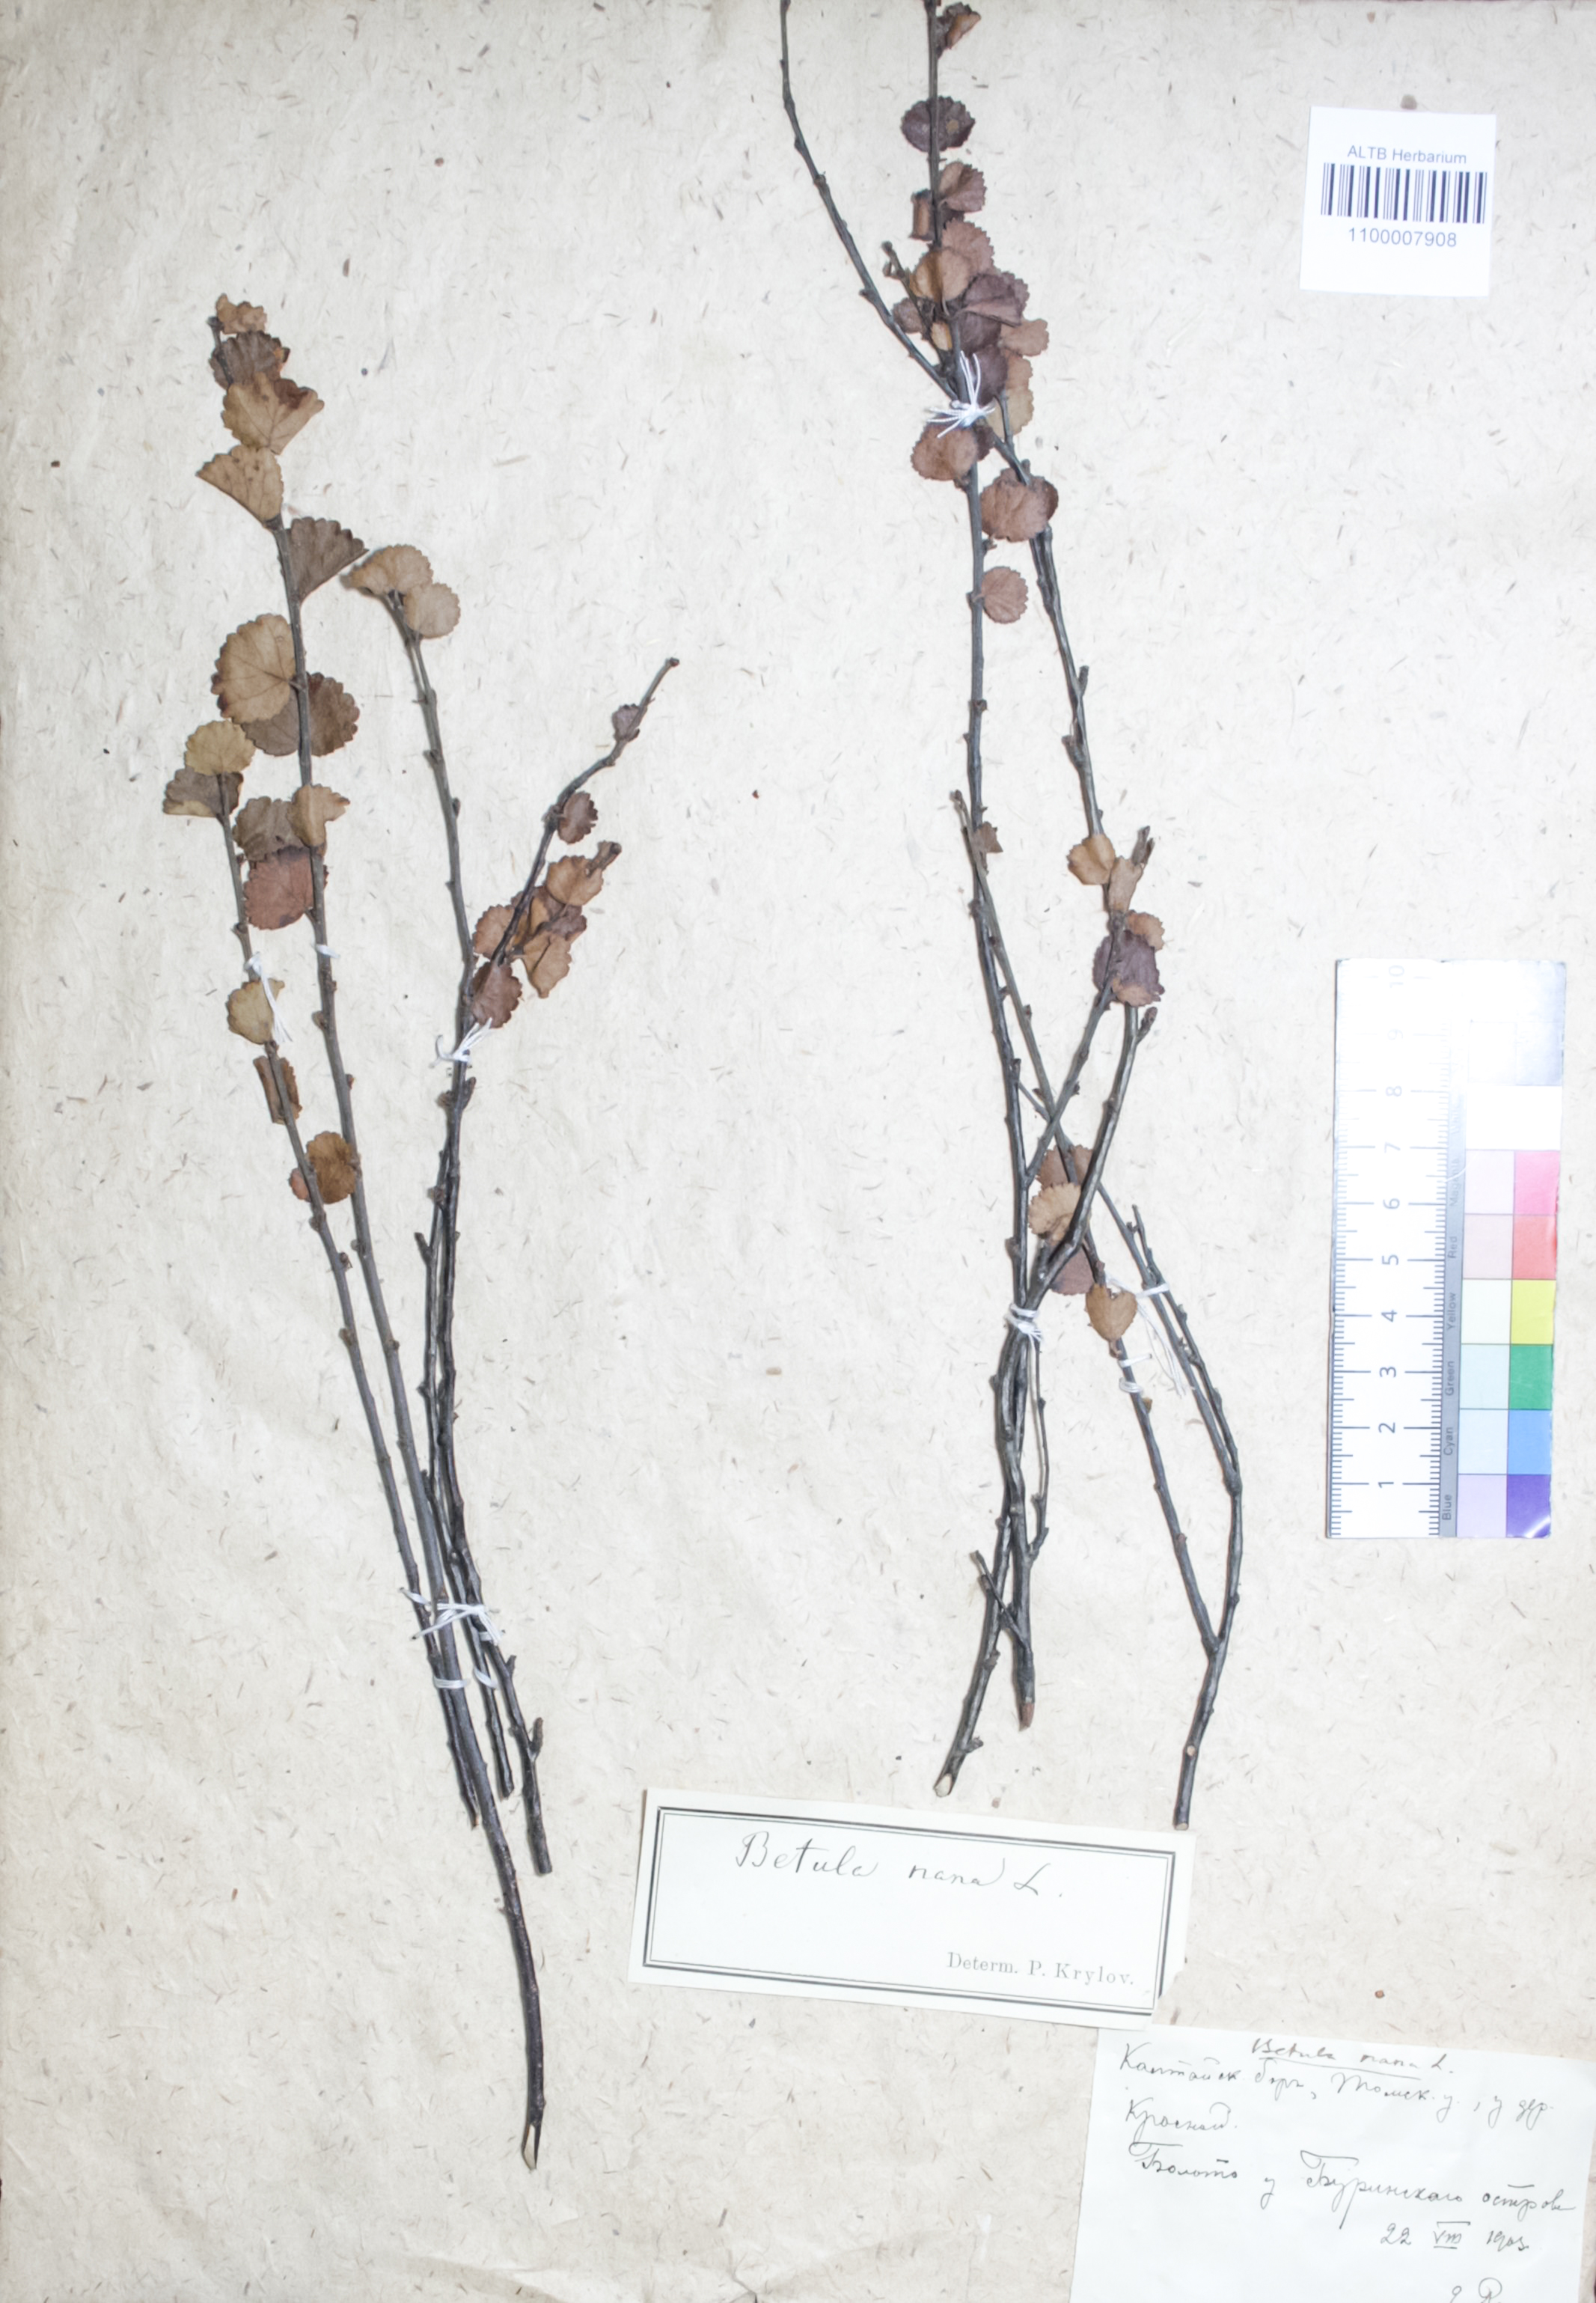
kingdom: Plantae
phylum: Tracheophyta
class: Magnoliopsida
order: Fagales
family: Betulaceae
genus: Betula
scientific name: Betula nana
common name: Arctic dwarf birch
